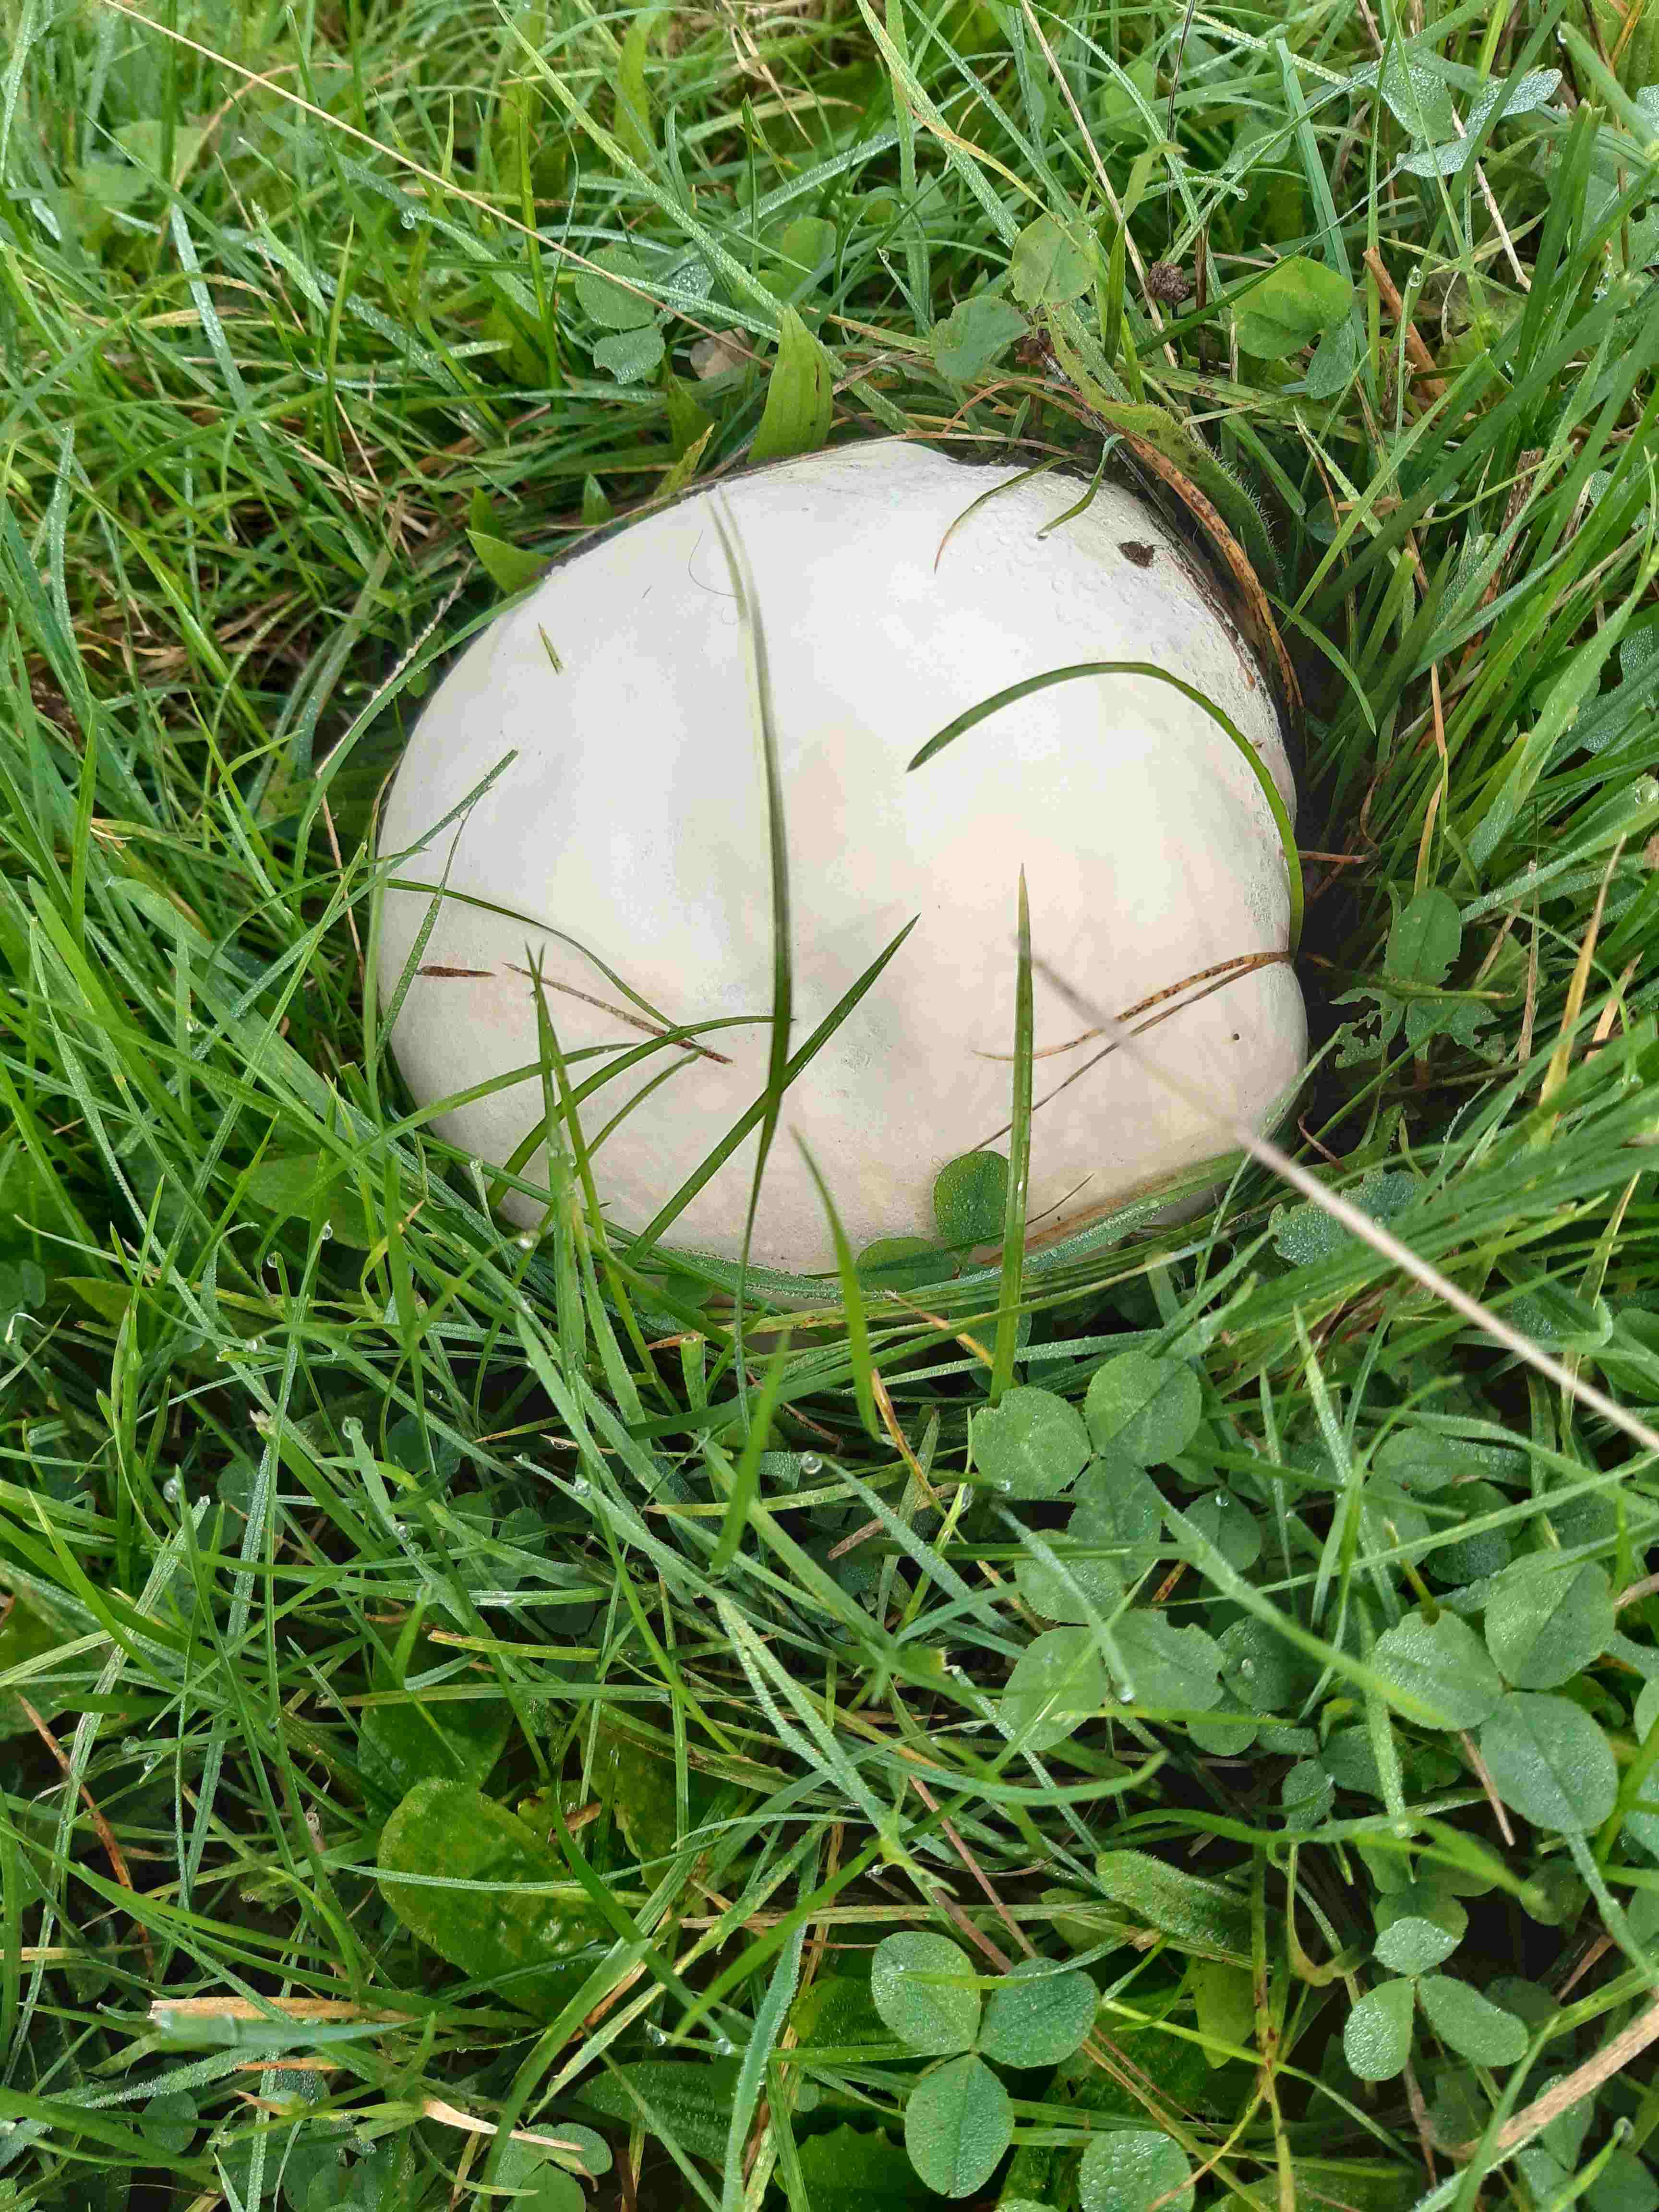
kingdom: Fungi
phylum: Basidiomycota
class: Agaricomycetes
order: Agaricales
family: Lycoperdaceae
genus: Calvatia
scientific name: Calvatia gigantea
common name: kæmpestøvbold
